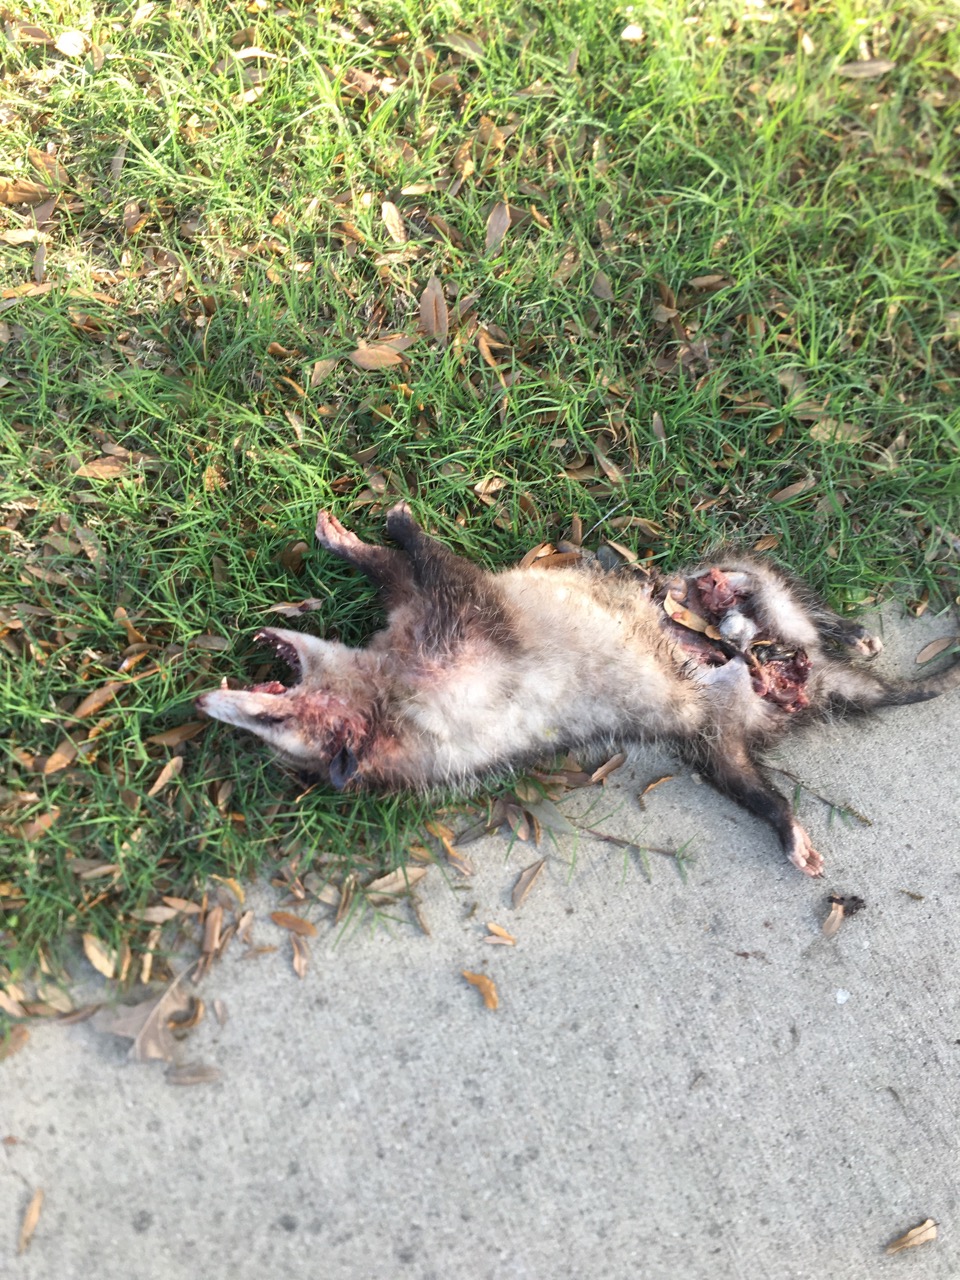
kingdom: Animalia
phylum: Chordata
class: Mammalia
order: Didelphimorphia
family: Didelphidae
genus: Didelphis
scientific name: Didelphis virginiana
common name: Virginia opossum
